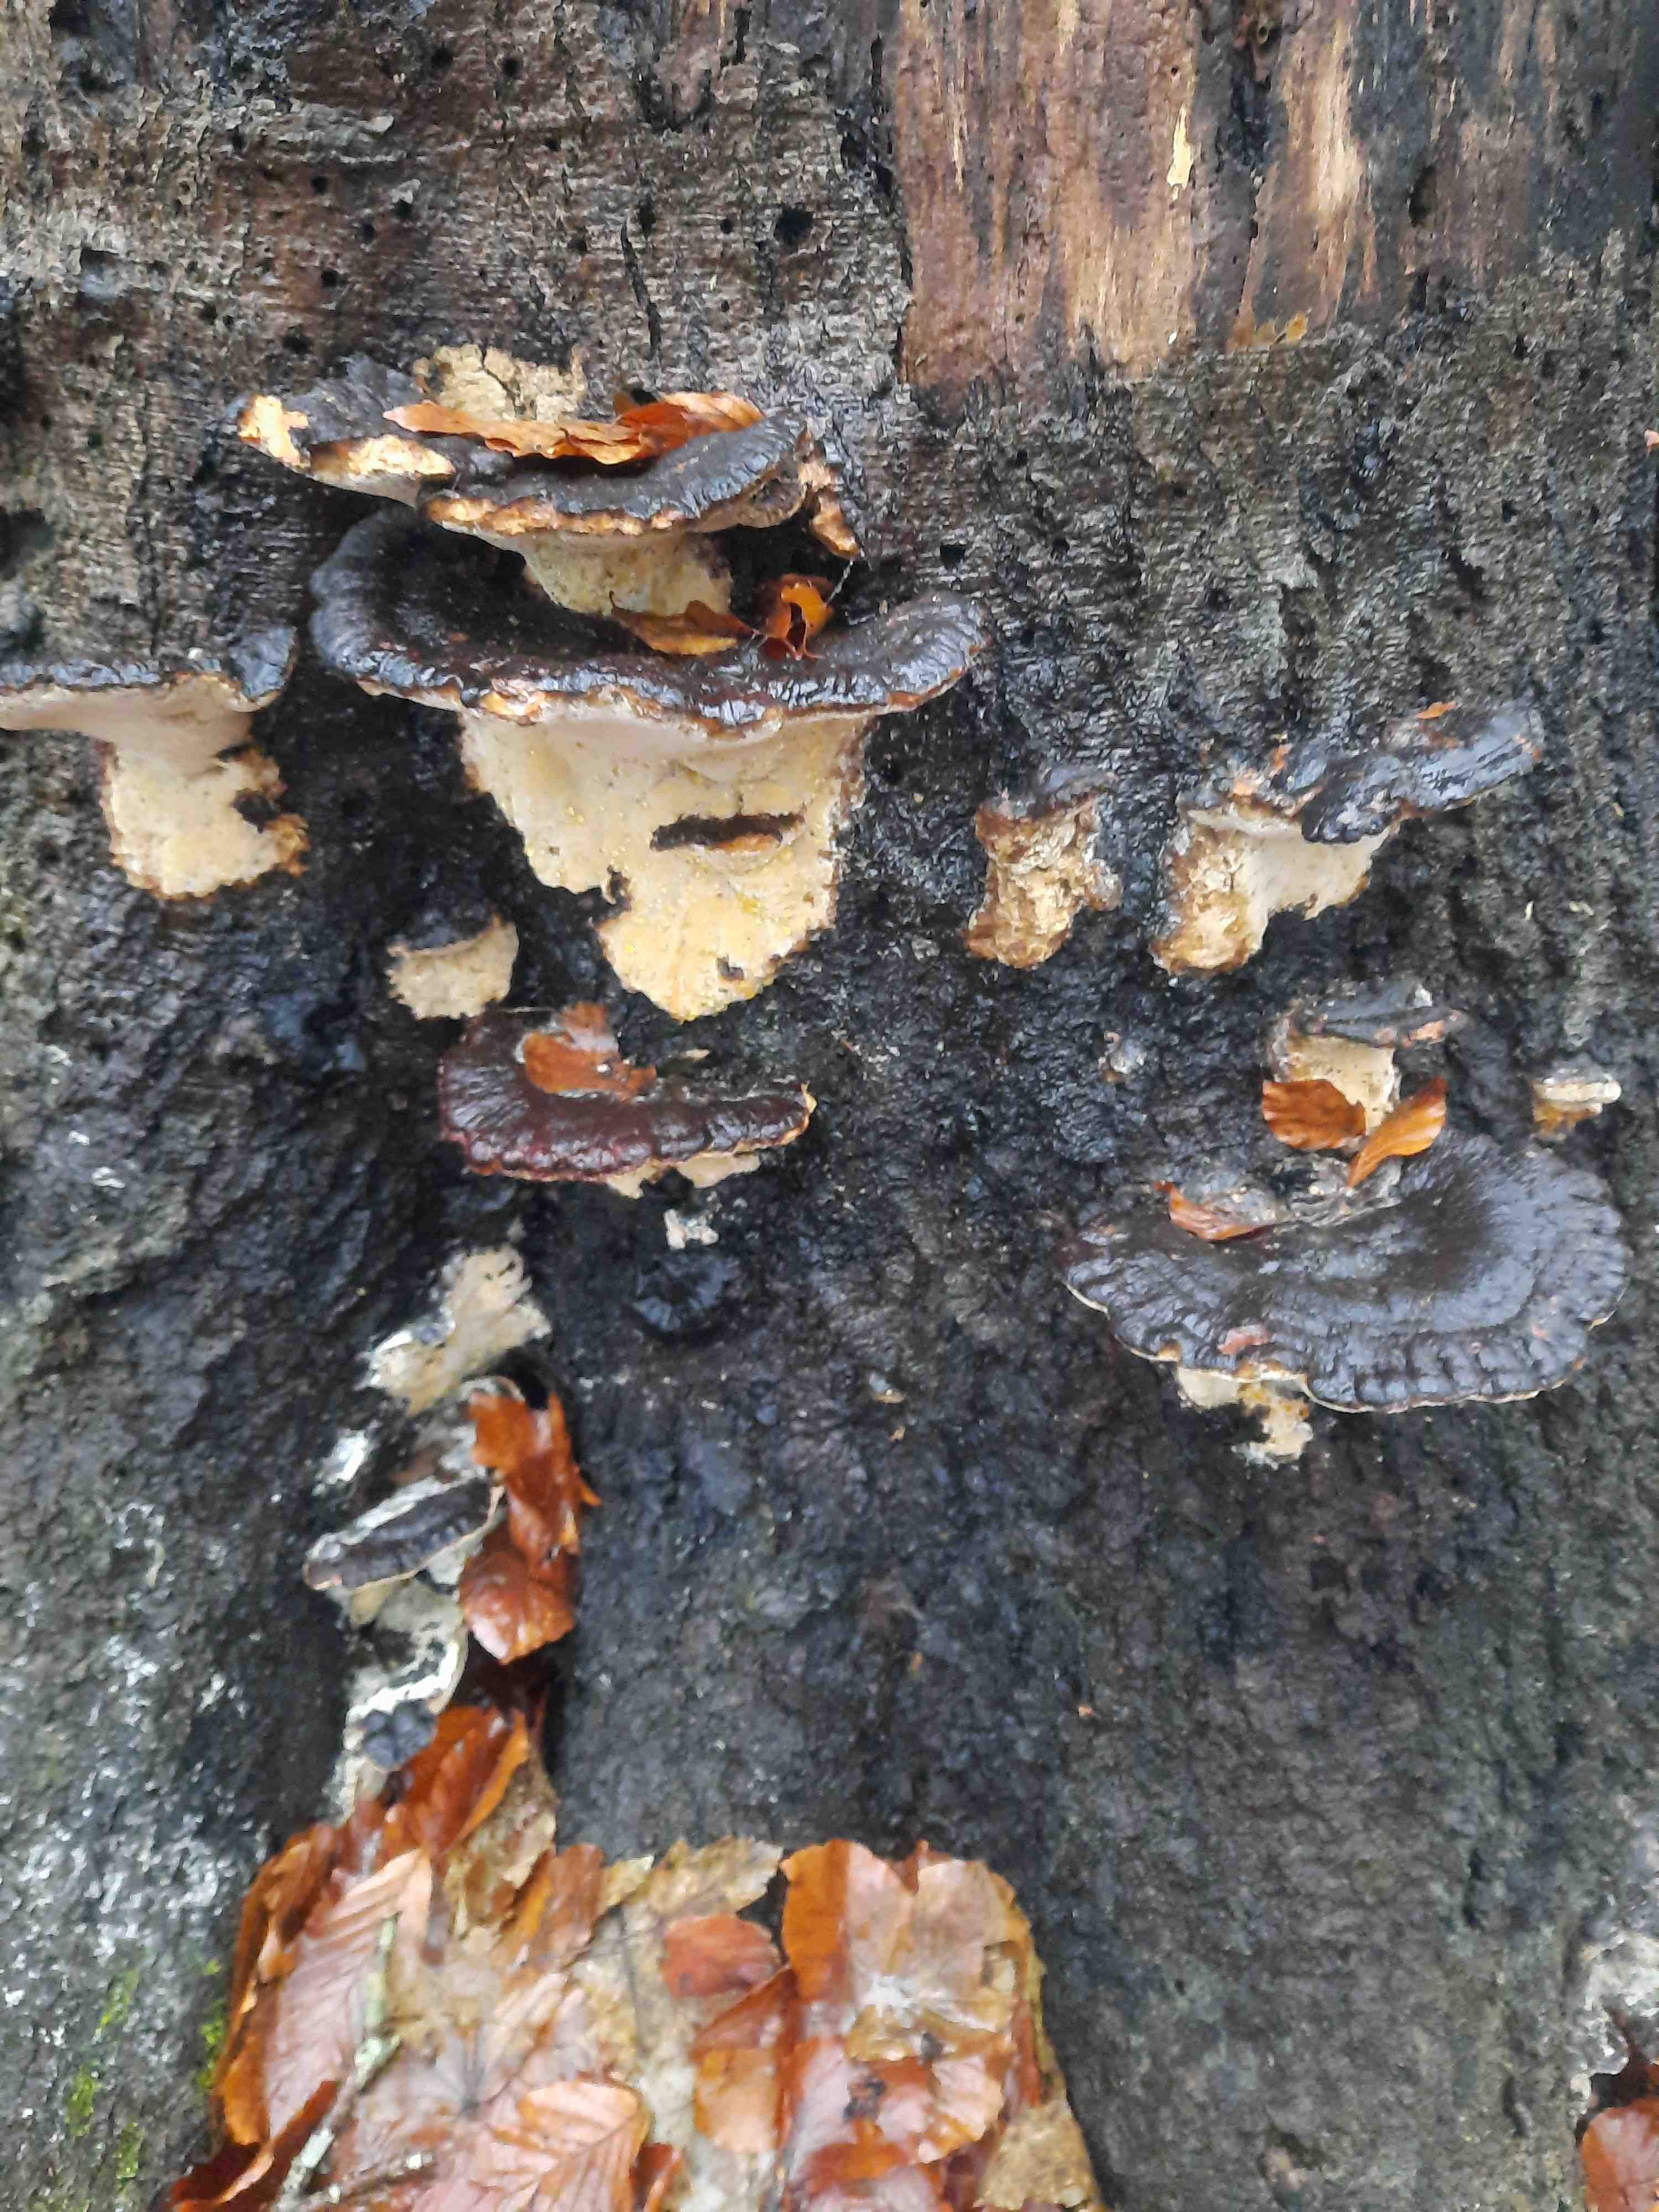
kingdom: Fungi
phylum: Basidiomycota
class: Agaricomycetes
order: Polyporales
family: Ischnodermataceae
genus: Ischnoderma
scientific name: Ischnoderma resinosum
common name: løv-tjæreporesvamp
